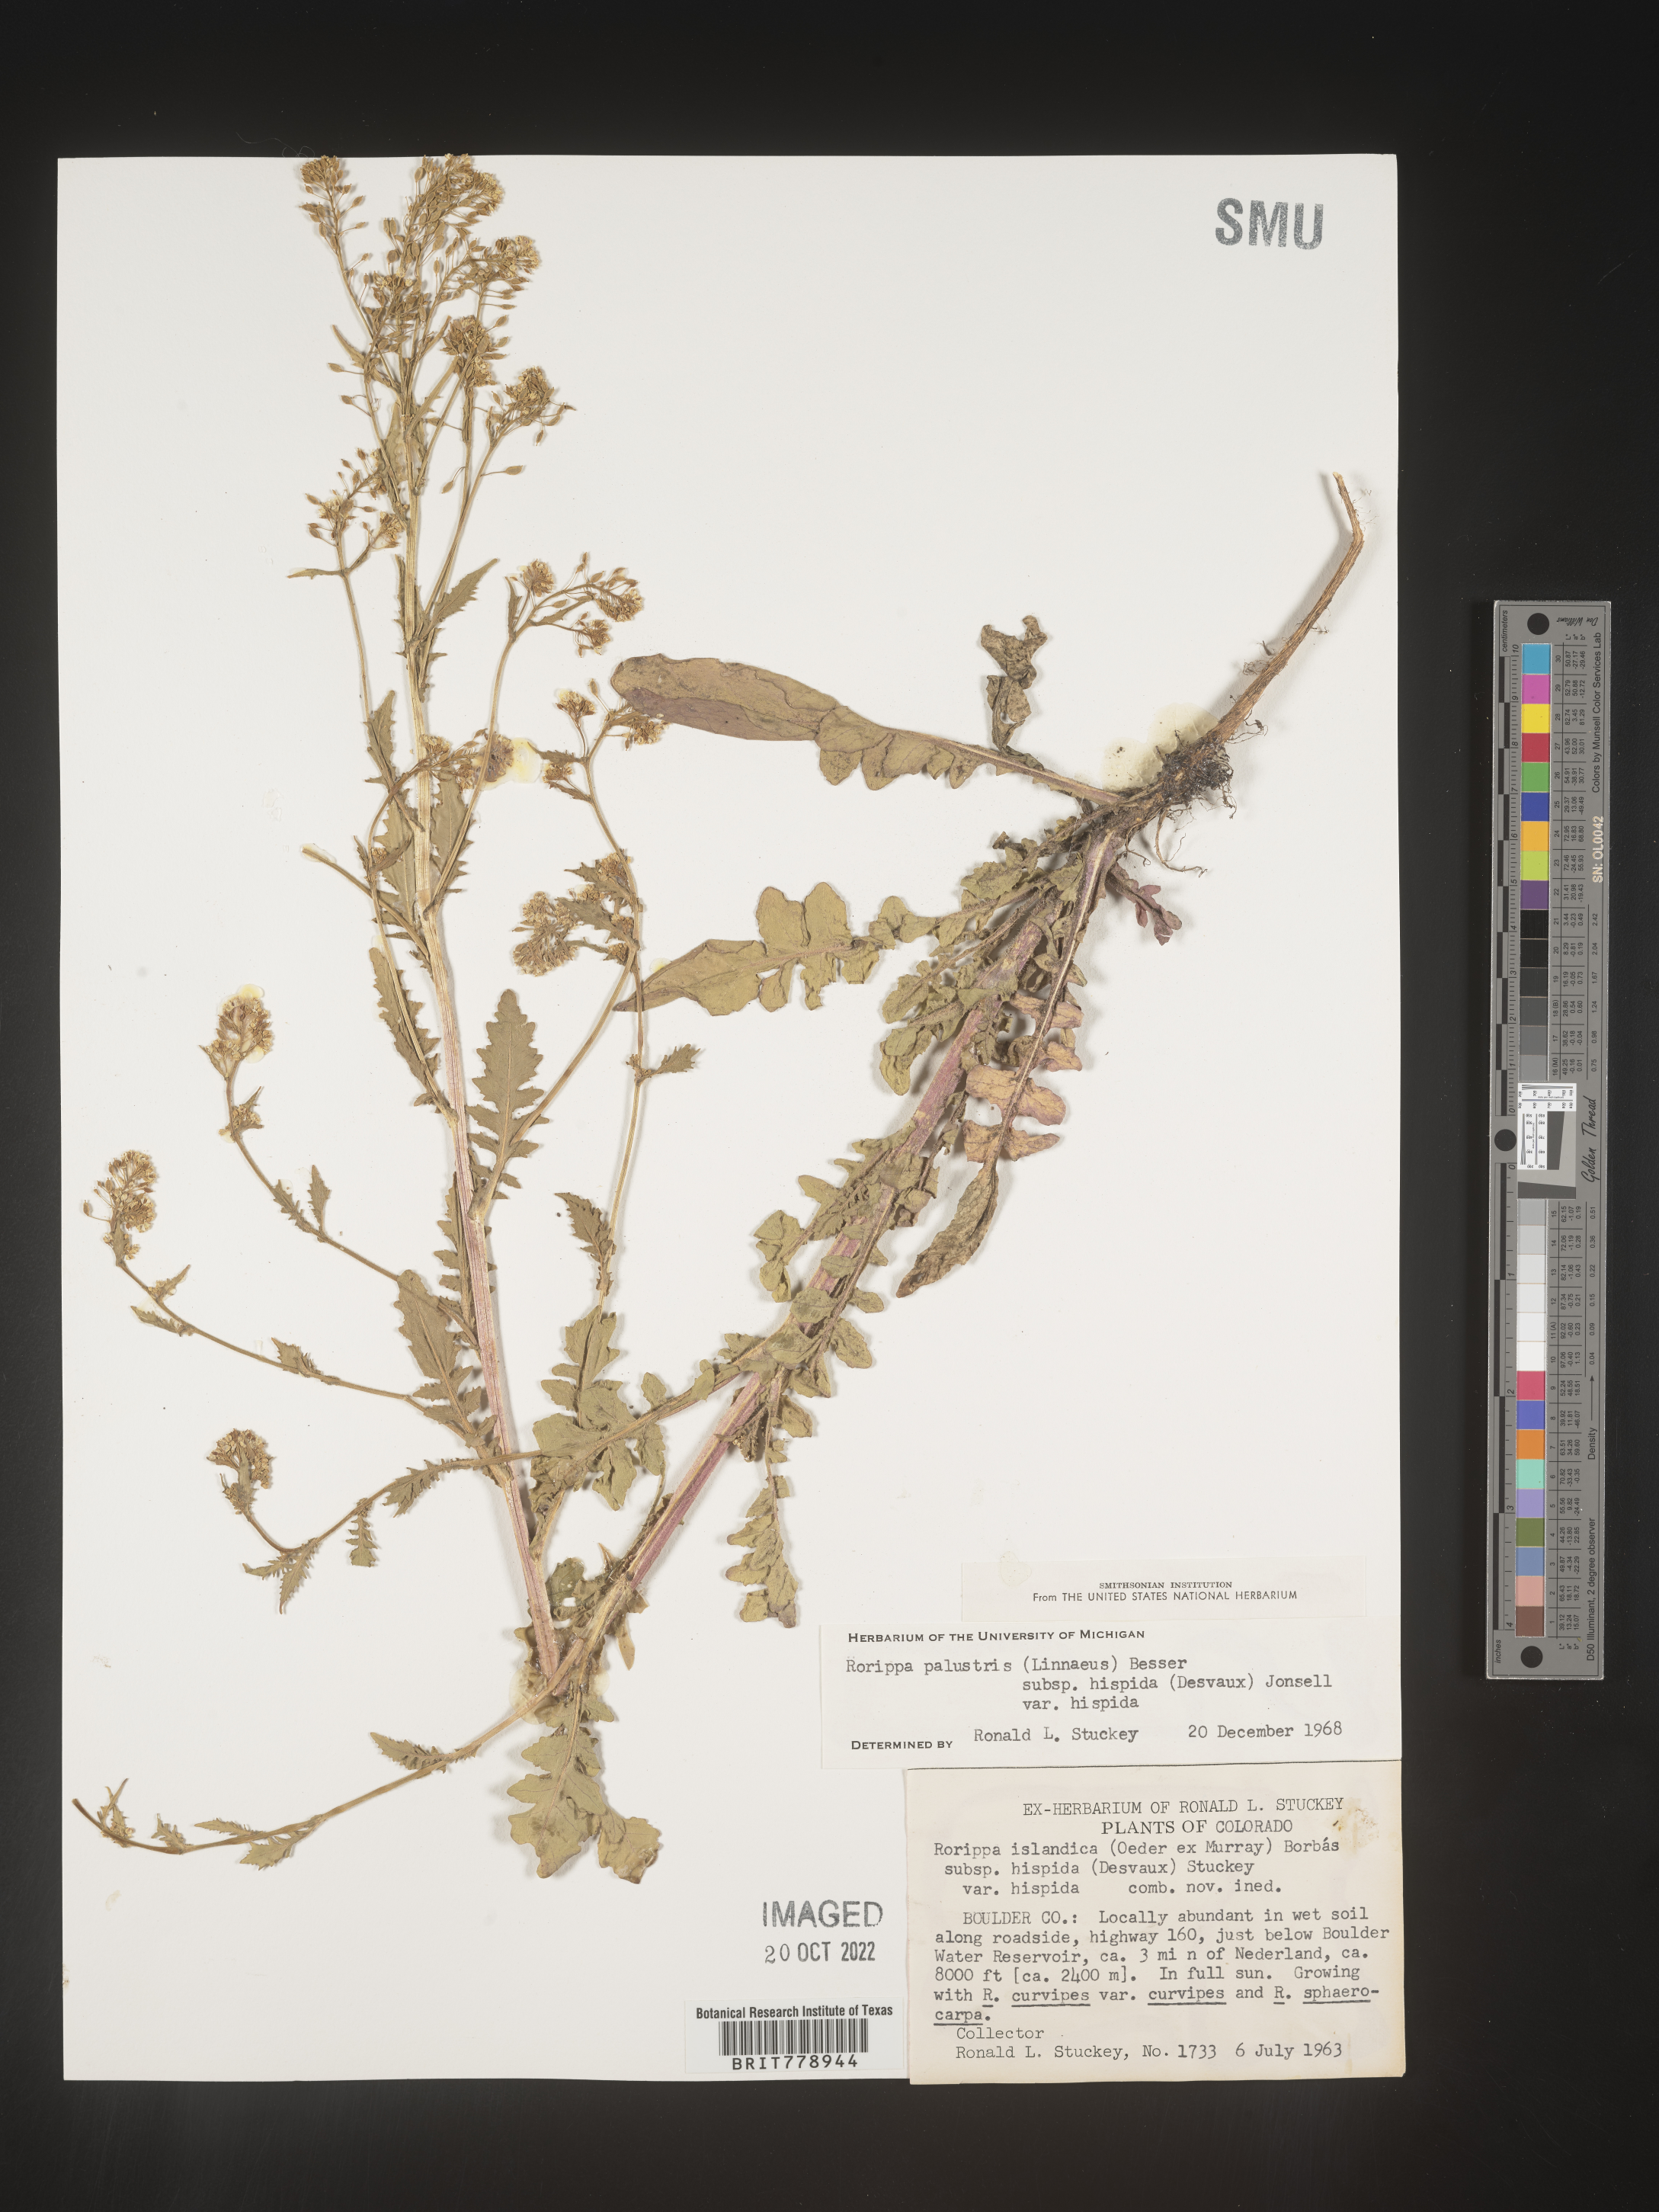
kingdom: Plantae
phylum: Tracheophyta
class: Magnoliopsida
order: Brassicales
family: Brassicaceae
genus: Rorippa
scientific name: Rorippa palustris
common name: Marsh yellow-cress
